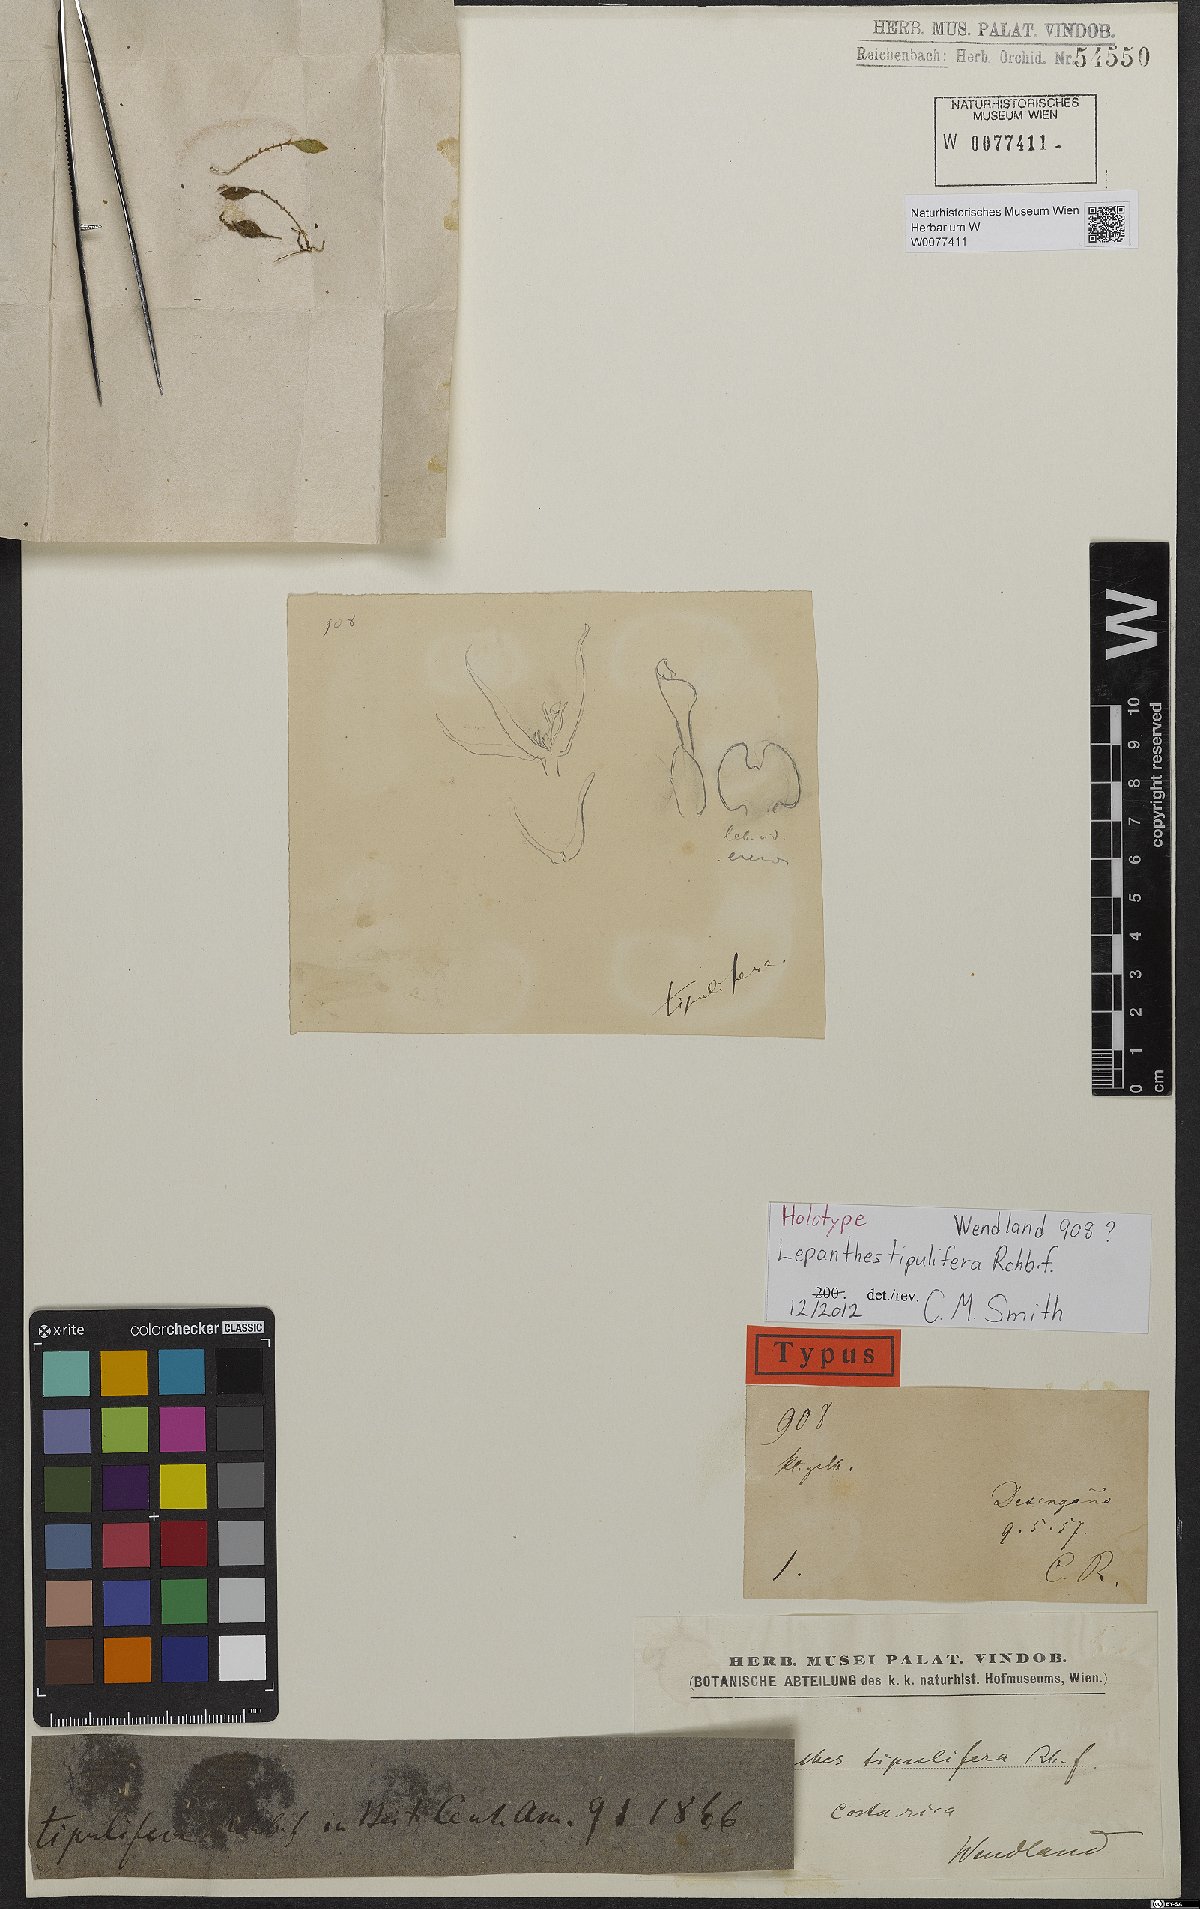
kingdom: Plantae
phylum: Tracheophyta
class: Liliopsida
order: Asparagales
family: Orchidaceae
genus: Lepanthes
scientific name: Lepanthes tipulifera
